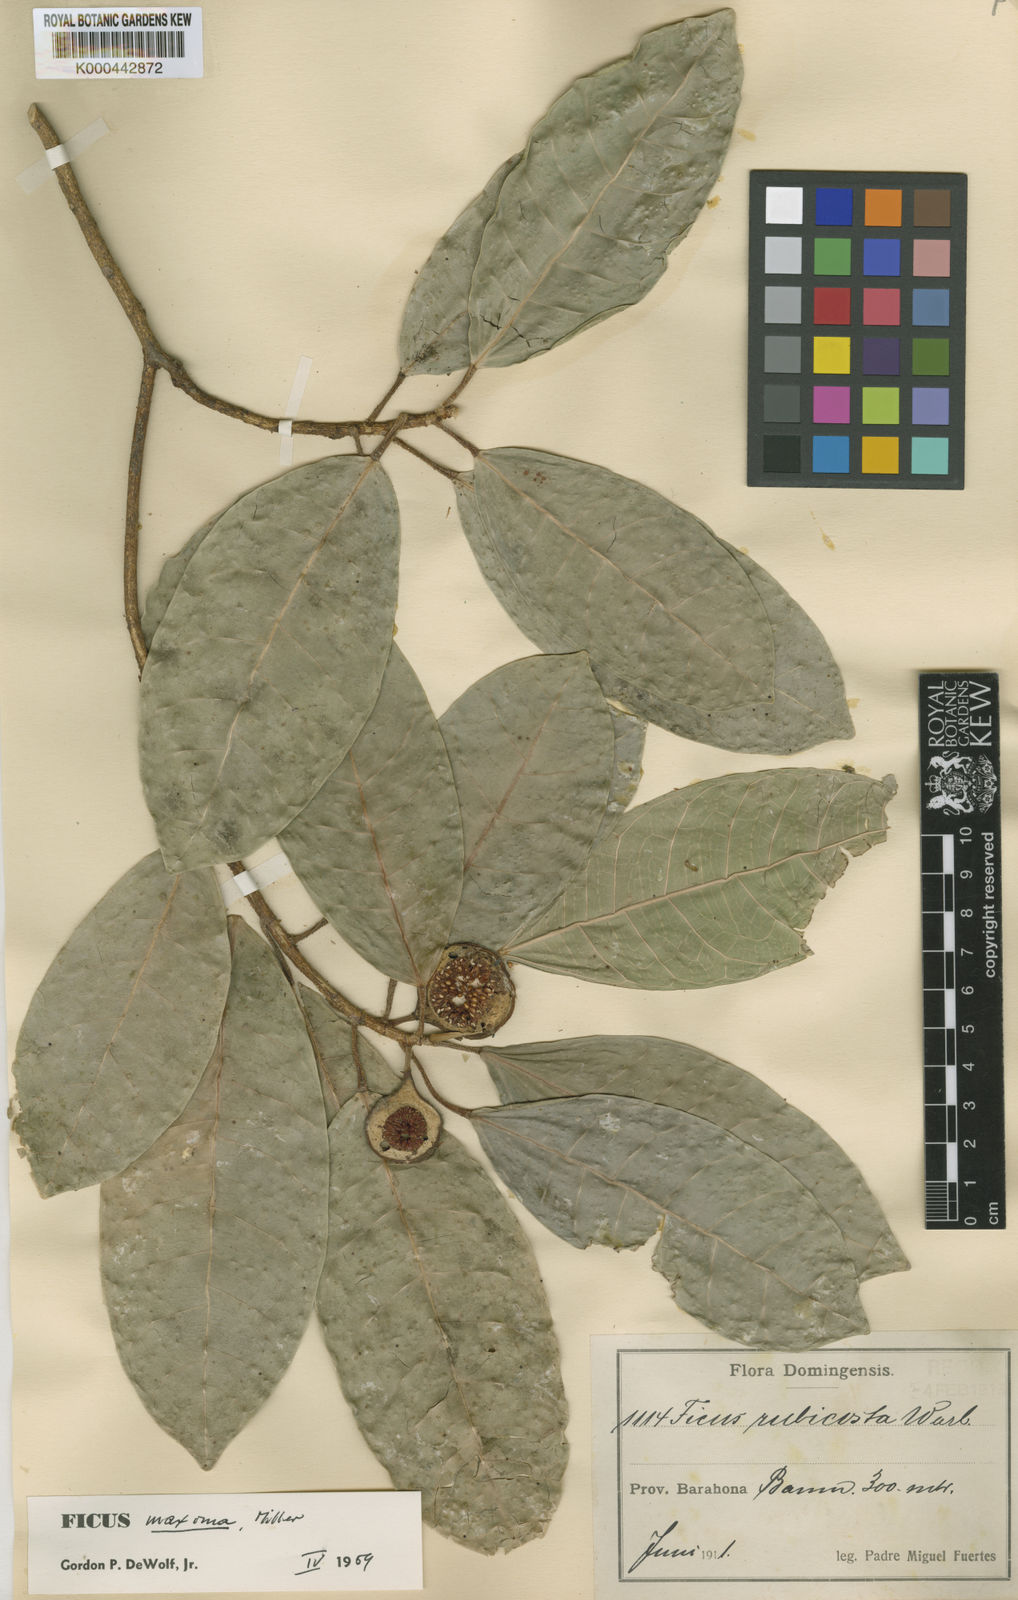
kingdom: Plantae
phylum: Tracheophyta
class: Magnoliopsida
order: Rosales
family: Moraceae
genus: Ficus
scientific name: Ficus maxima
